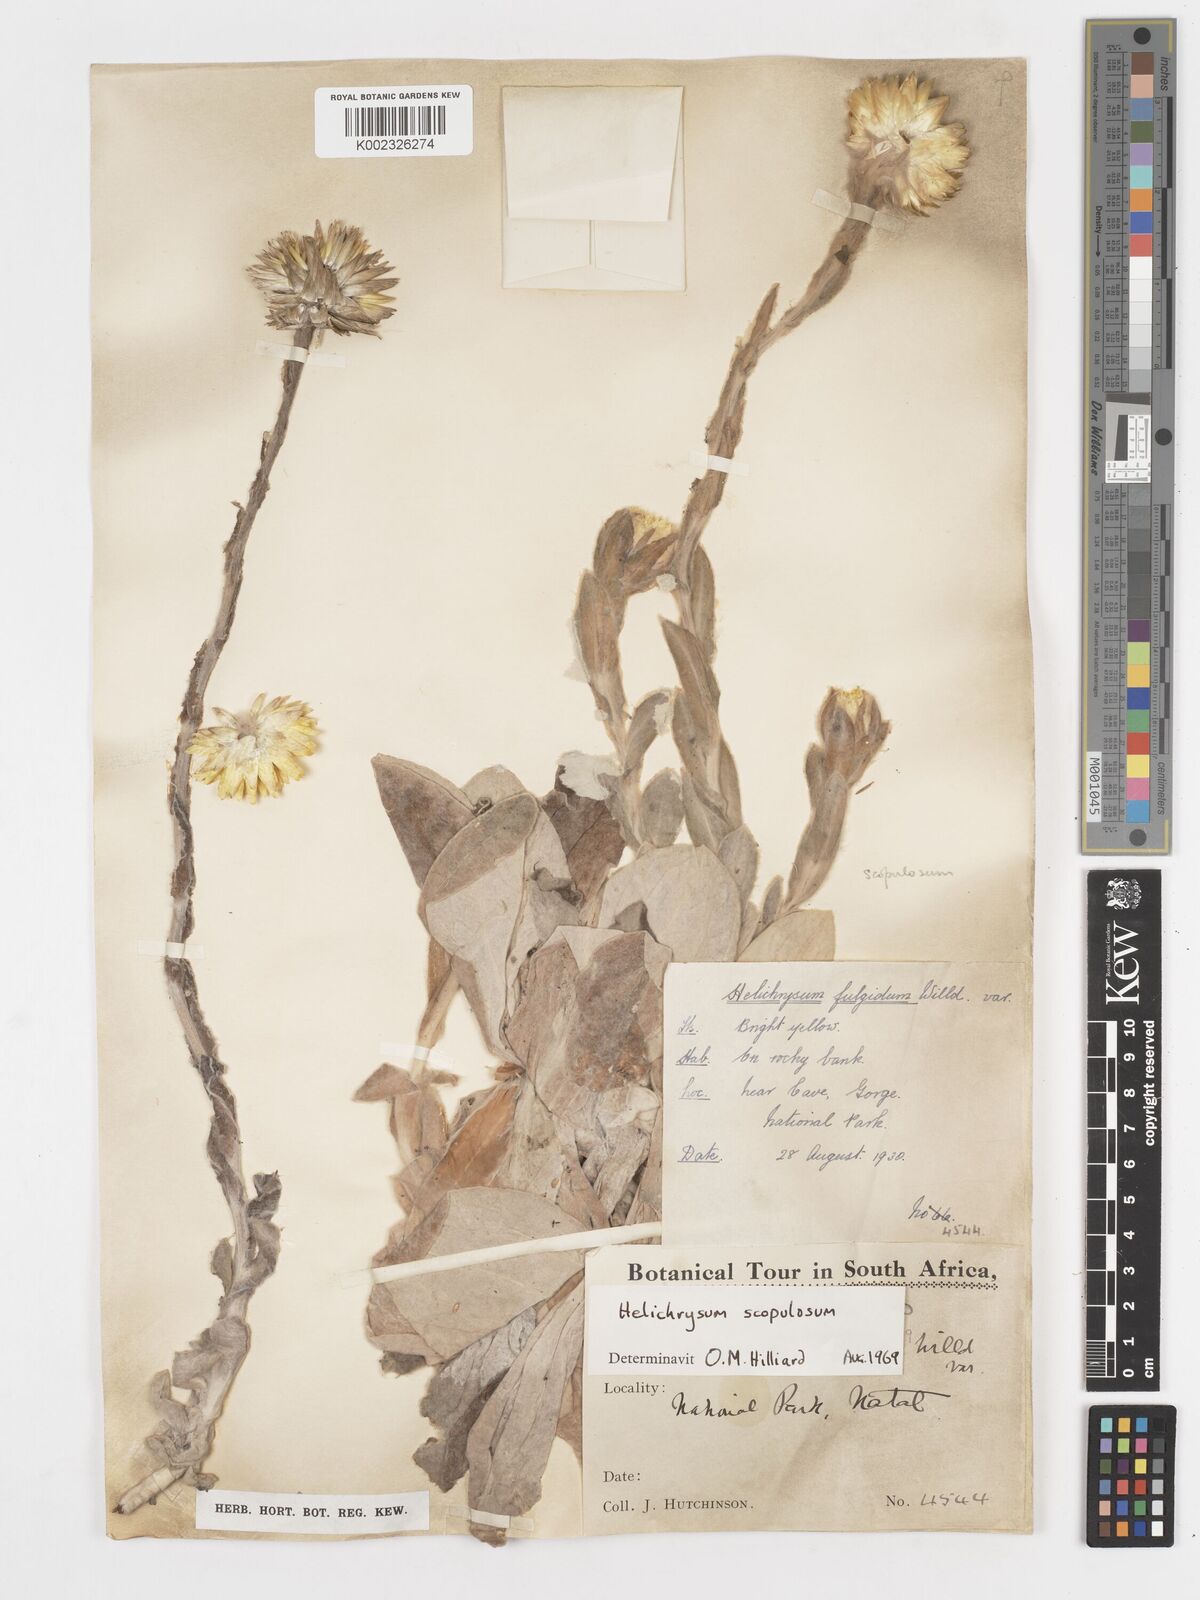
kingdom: Plantae
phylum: Tracheophyta
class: Magnoliopsida
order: Asterales
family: Asteraceae
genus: Helichrysum
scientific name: Helichrysum aureum
